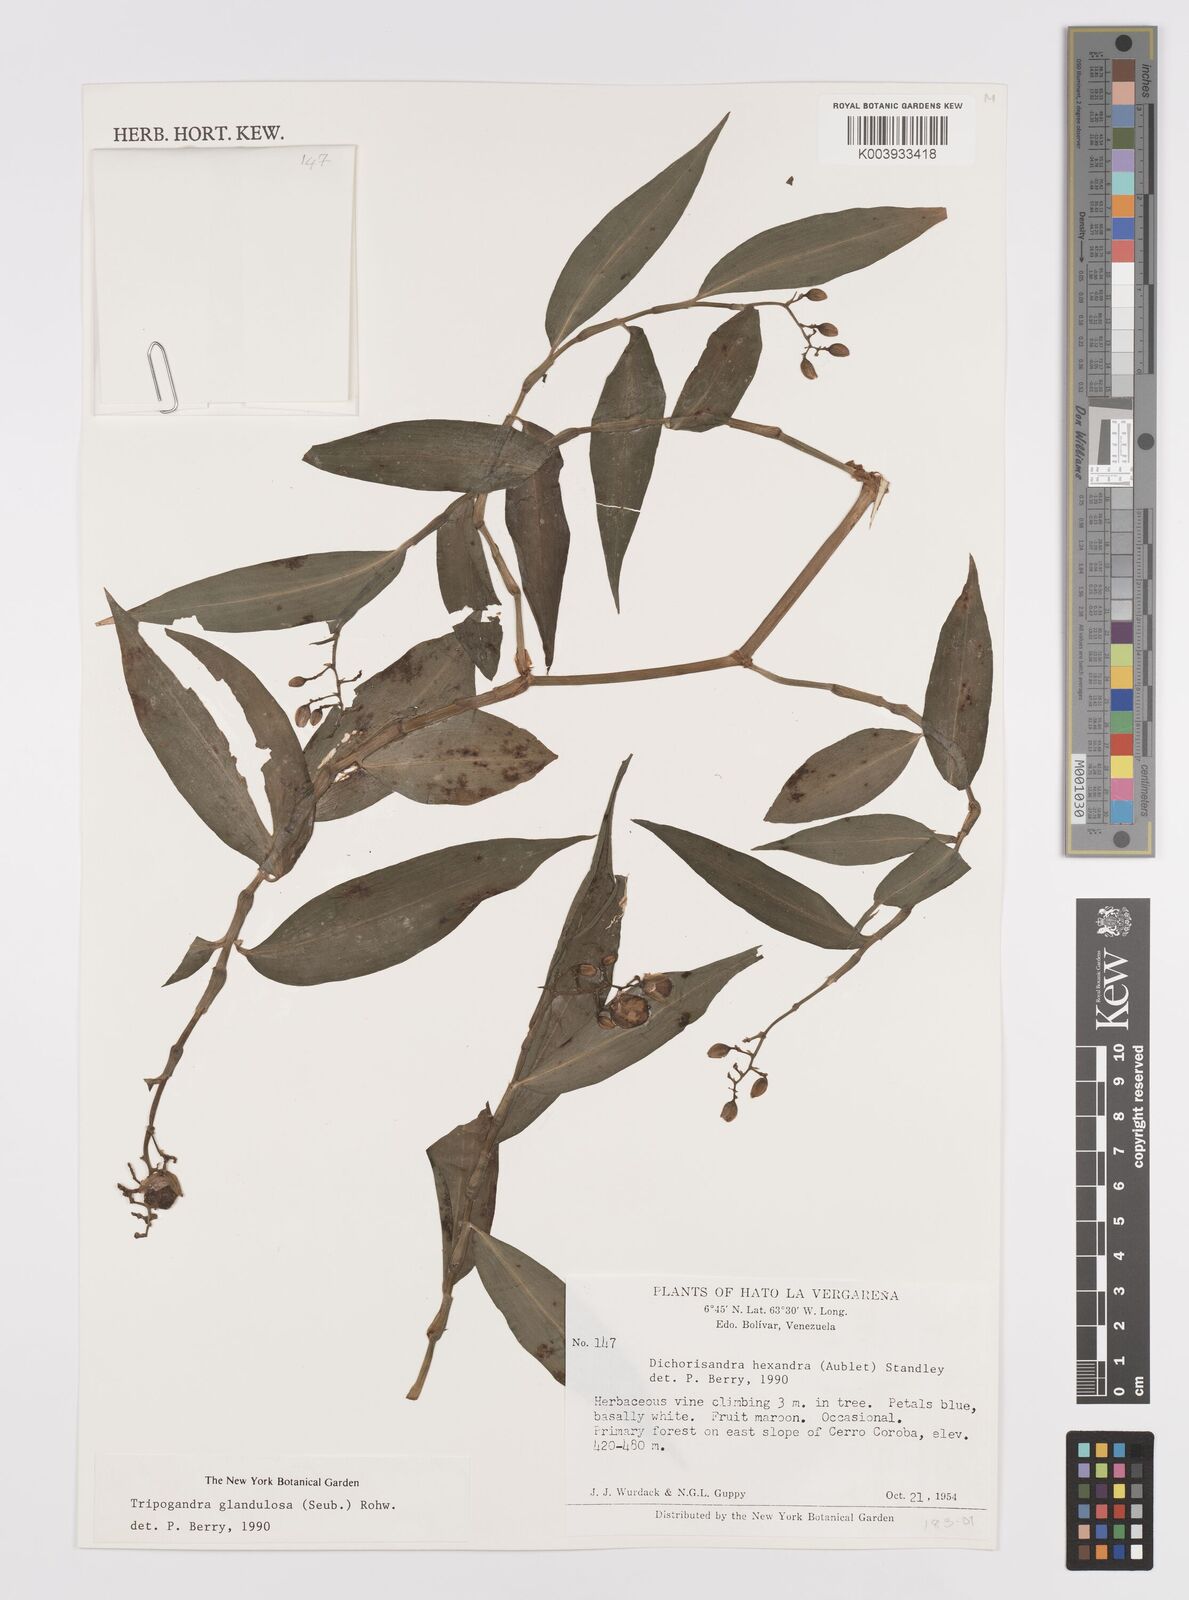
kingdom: Plantae
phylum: Tracheophyta
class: Liliopsida
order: Commelinales
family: Commelinaceae
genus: Dichorisandra
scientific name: Dichorisandra hexandra
